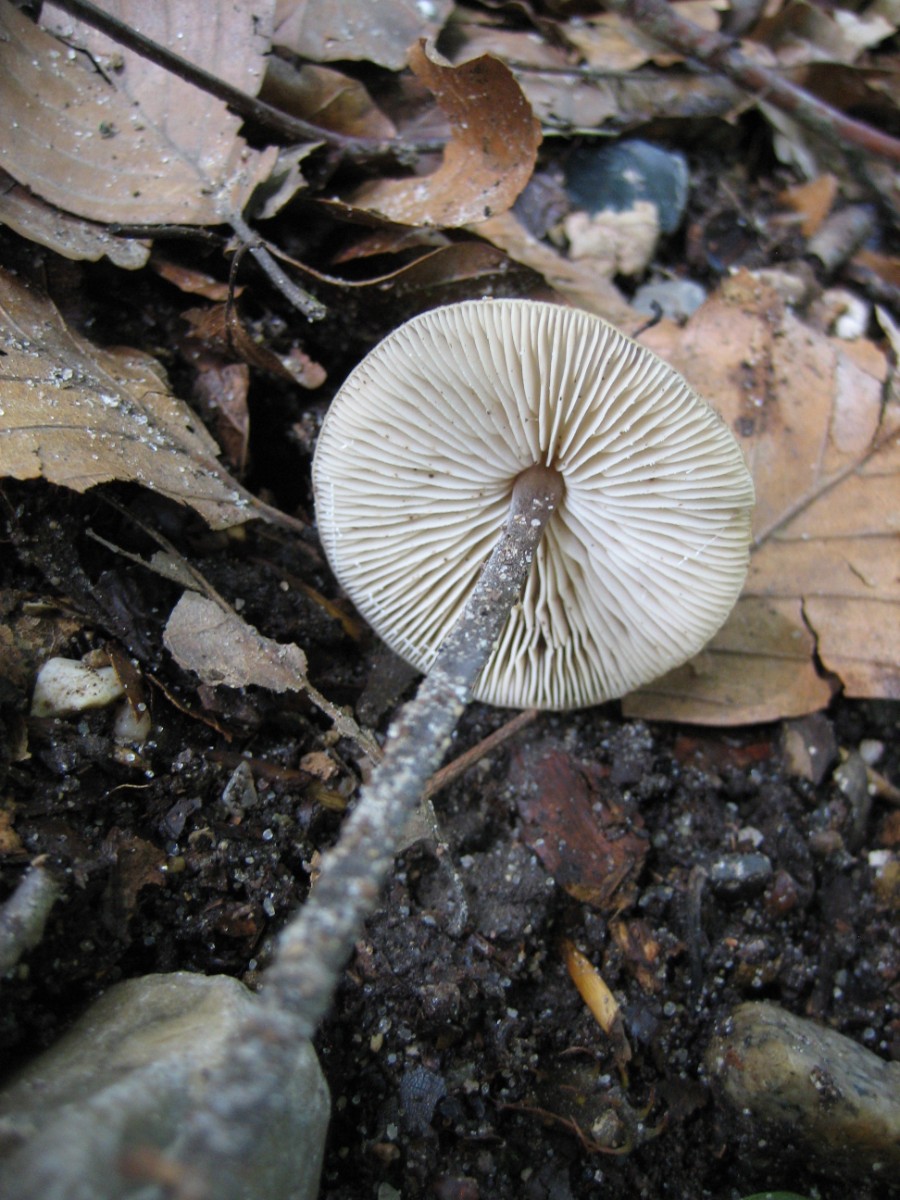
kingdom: Fungi
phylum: Basidiomycota
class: Agaricomycetes
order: Agaricales
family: Omphalotaceae
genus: Mycetinis
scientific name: Mycetinis alliaceus
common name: stor løghat
